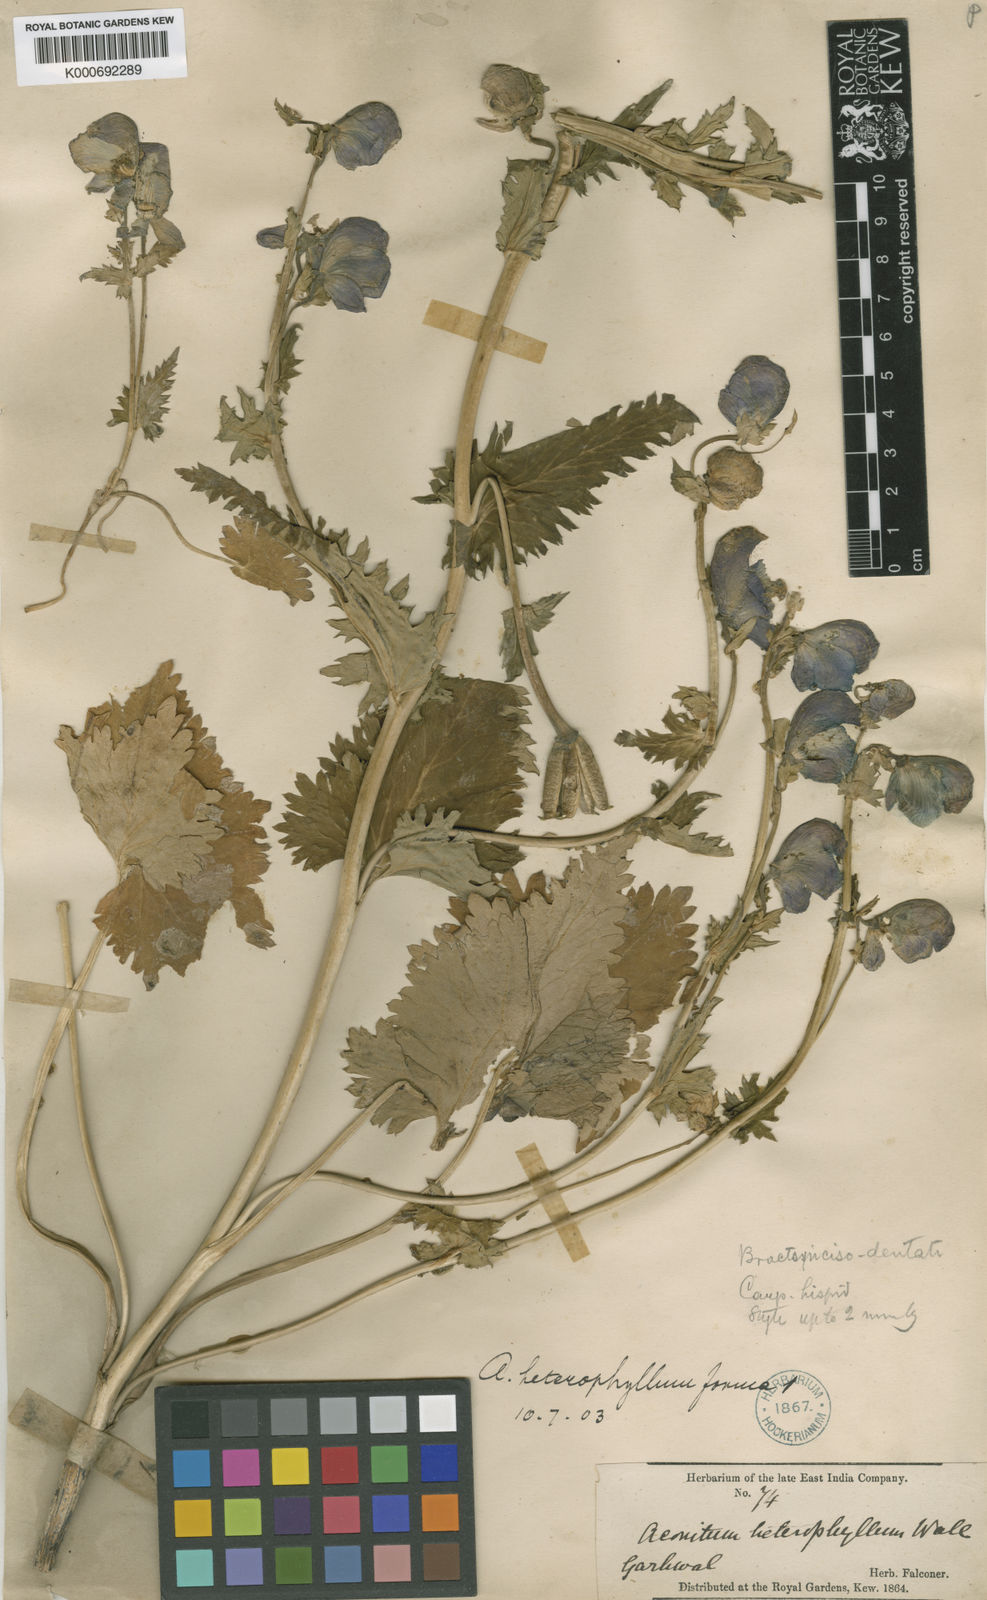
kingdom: Plantae
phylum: Tracheophyta
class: Magnoliopsida
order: Ranunculales
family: Ranunculaceae
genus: Aconitum
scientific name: Aconitum
